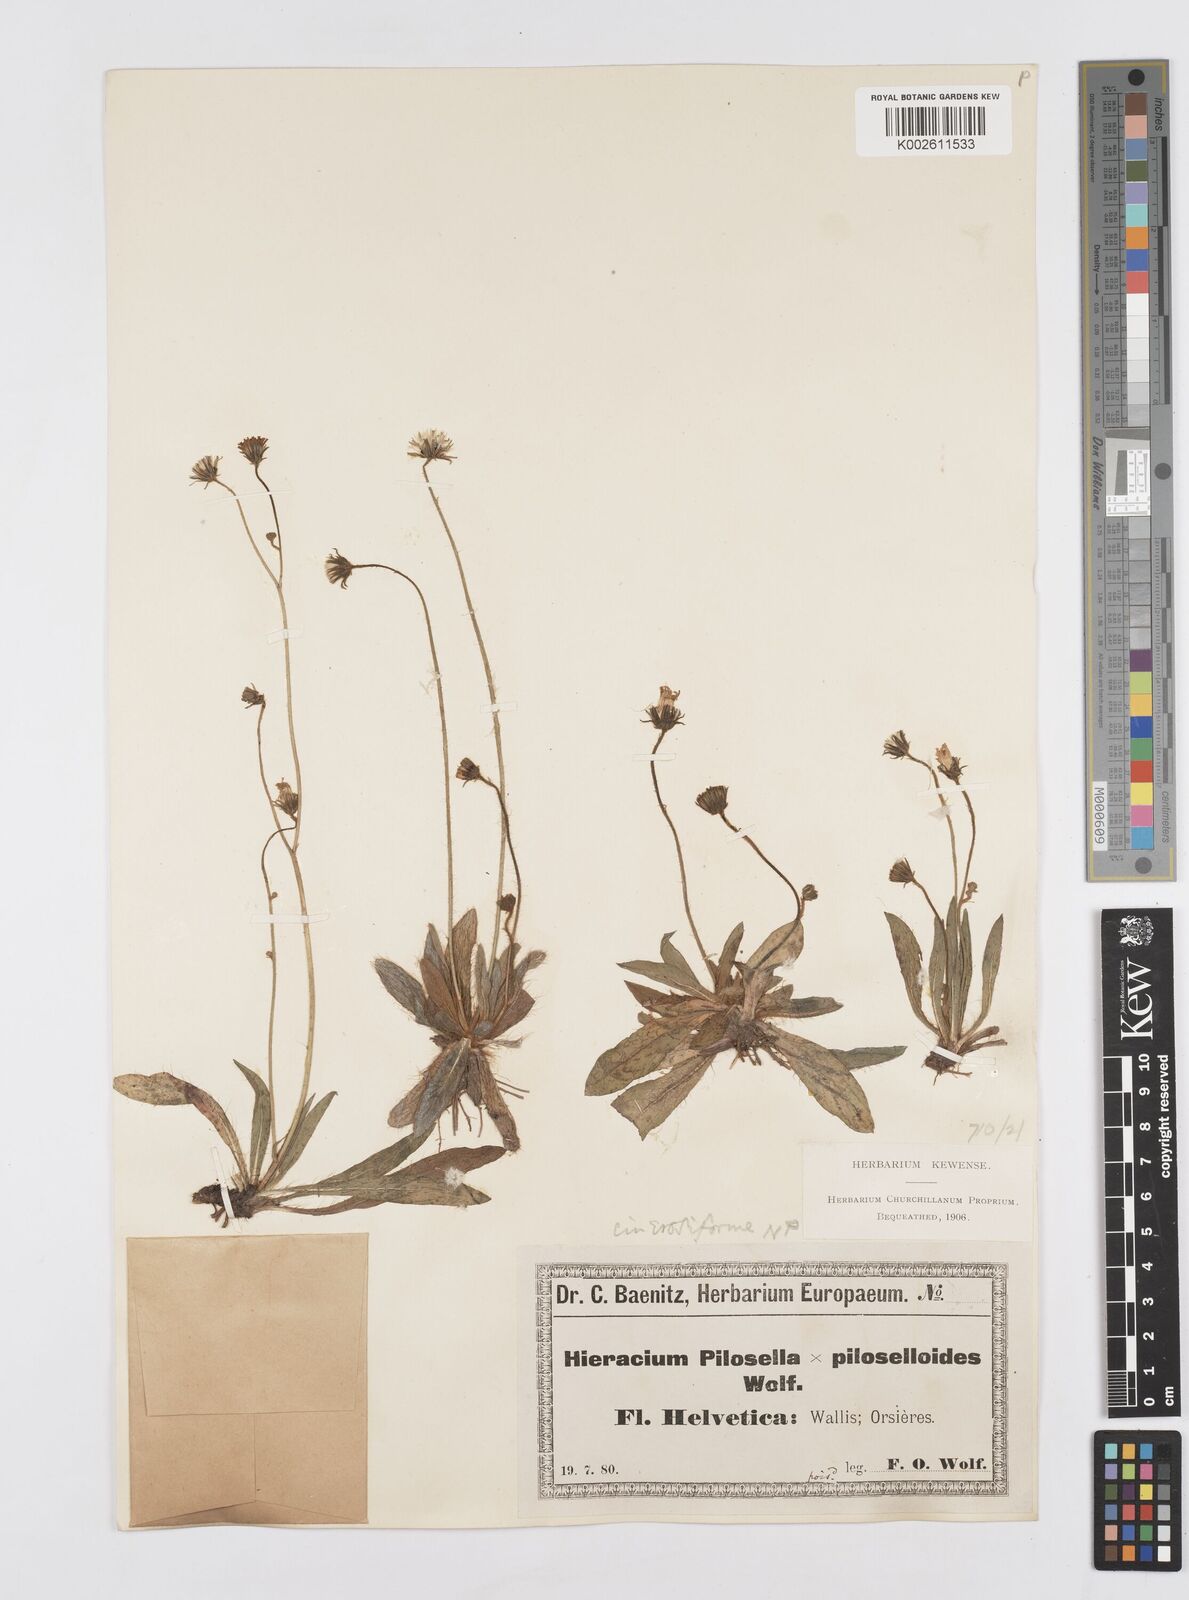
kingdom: Plantae
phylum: Tracheophyta
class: Magnoliopsida
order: Asterales
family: Asteraceae
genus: Pilosella
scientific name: Pilosella cinerosiformis
